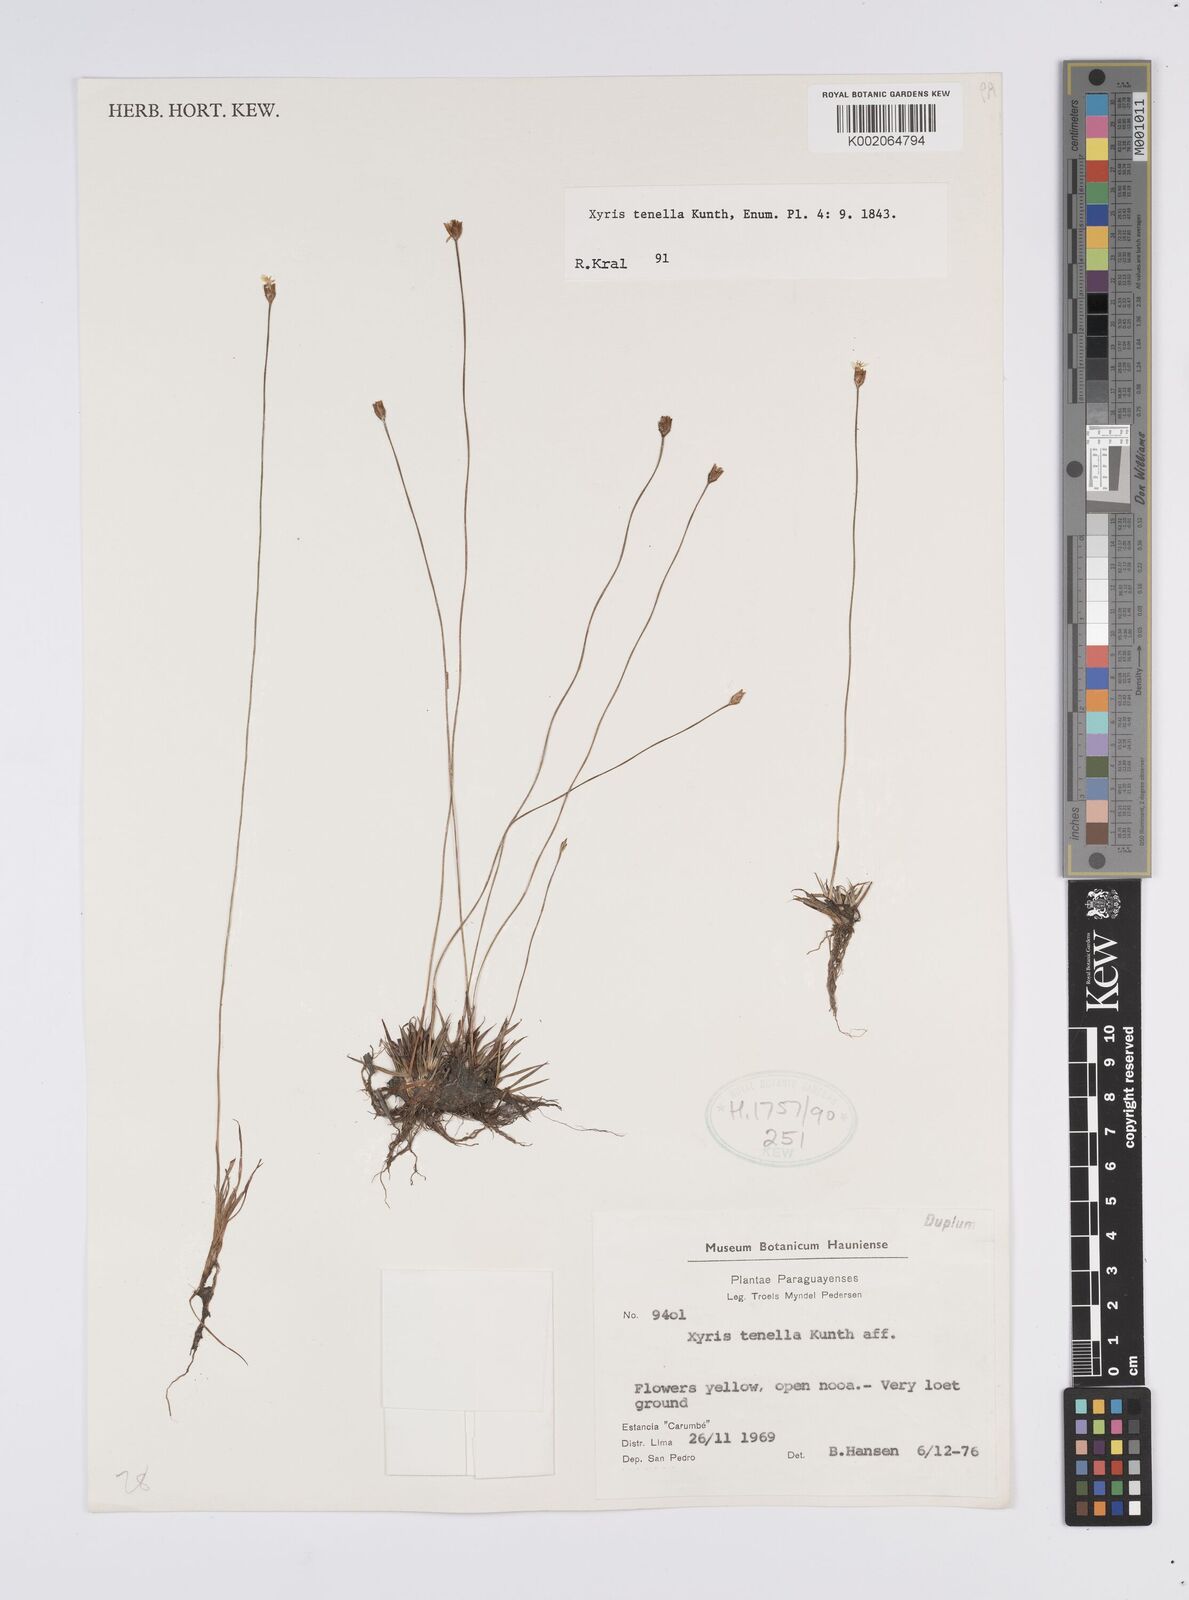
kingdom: Plantae
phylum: Tracheophyta
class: Liliopsida
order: Poales
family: Xyridaceae
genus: Xyris
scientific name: Xyris tenella
